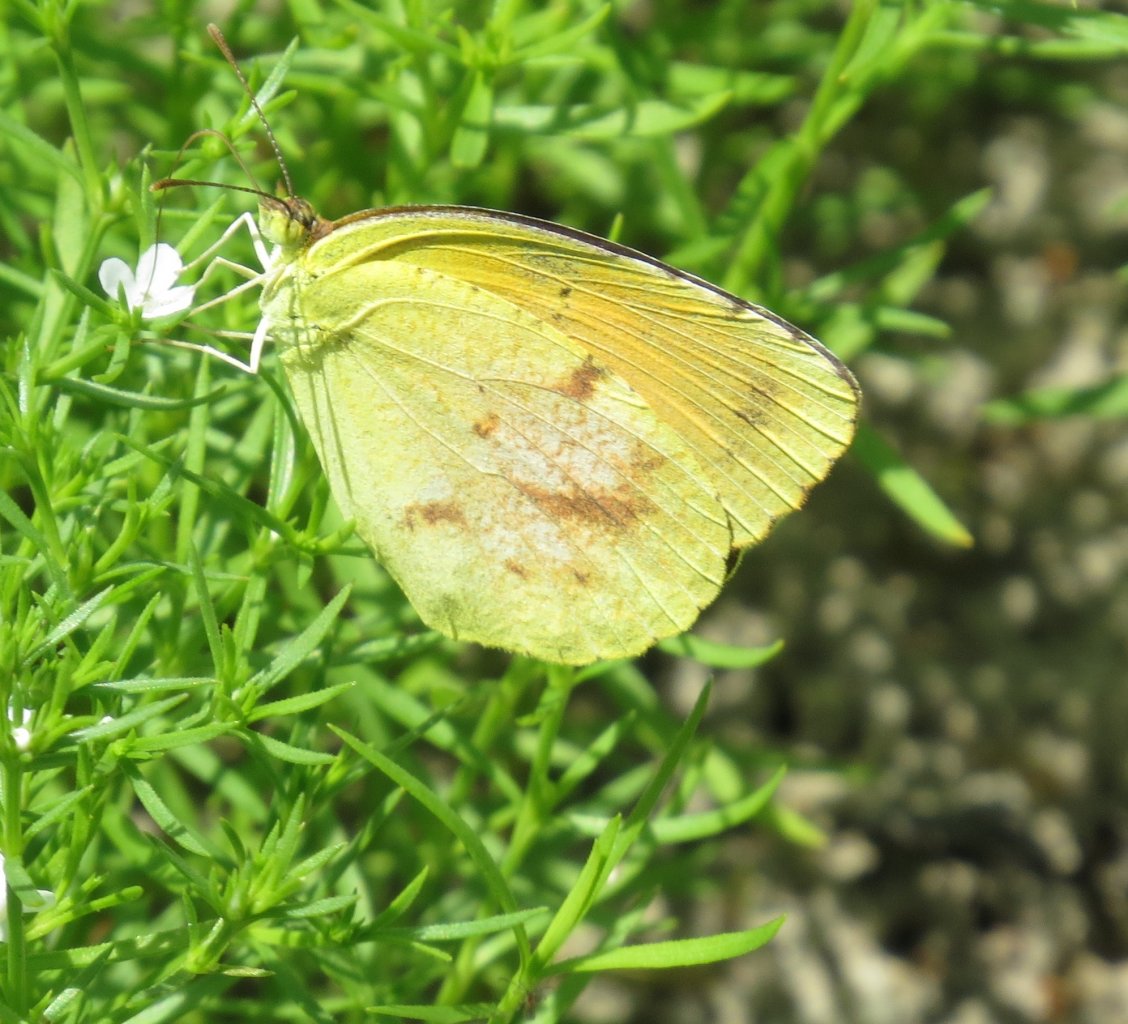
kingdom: Animalia
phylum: Arthropoda
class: Insecta
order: Lepidoptera
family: Pieridae
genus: Abaeis
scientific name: Abaeis nicippe
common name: Sleepy Orange
